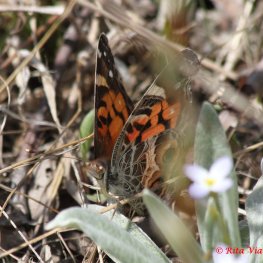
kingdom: Animalia
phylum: Arthropoda
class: Insecta
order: Lepidoptera
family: Nymphalidae
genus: Vanessa
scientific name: Vanessa virginiensis
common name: American Lady
